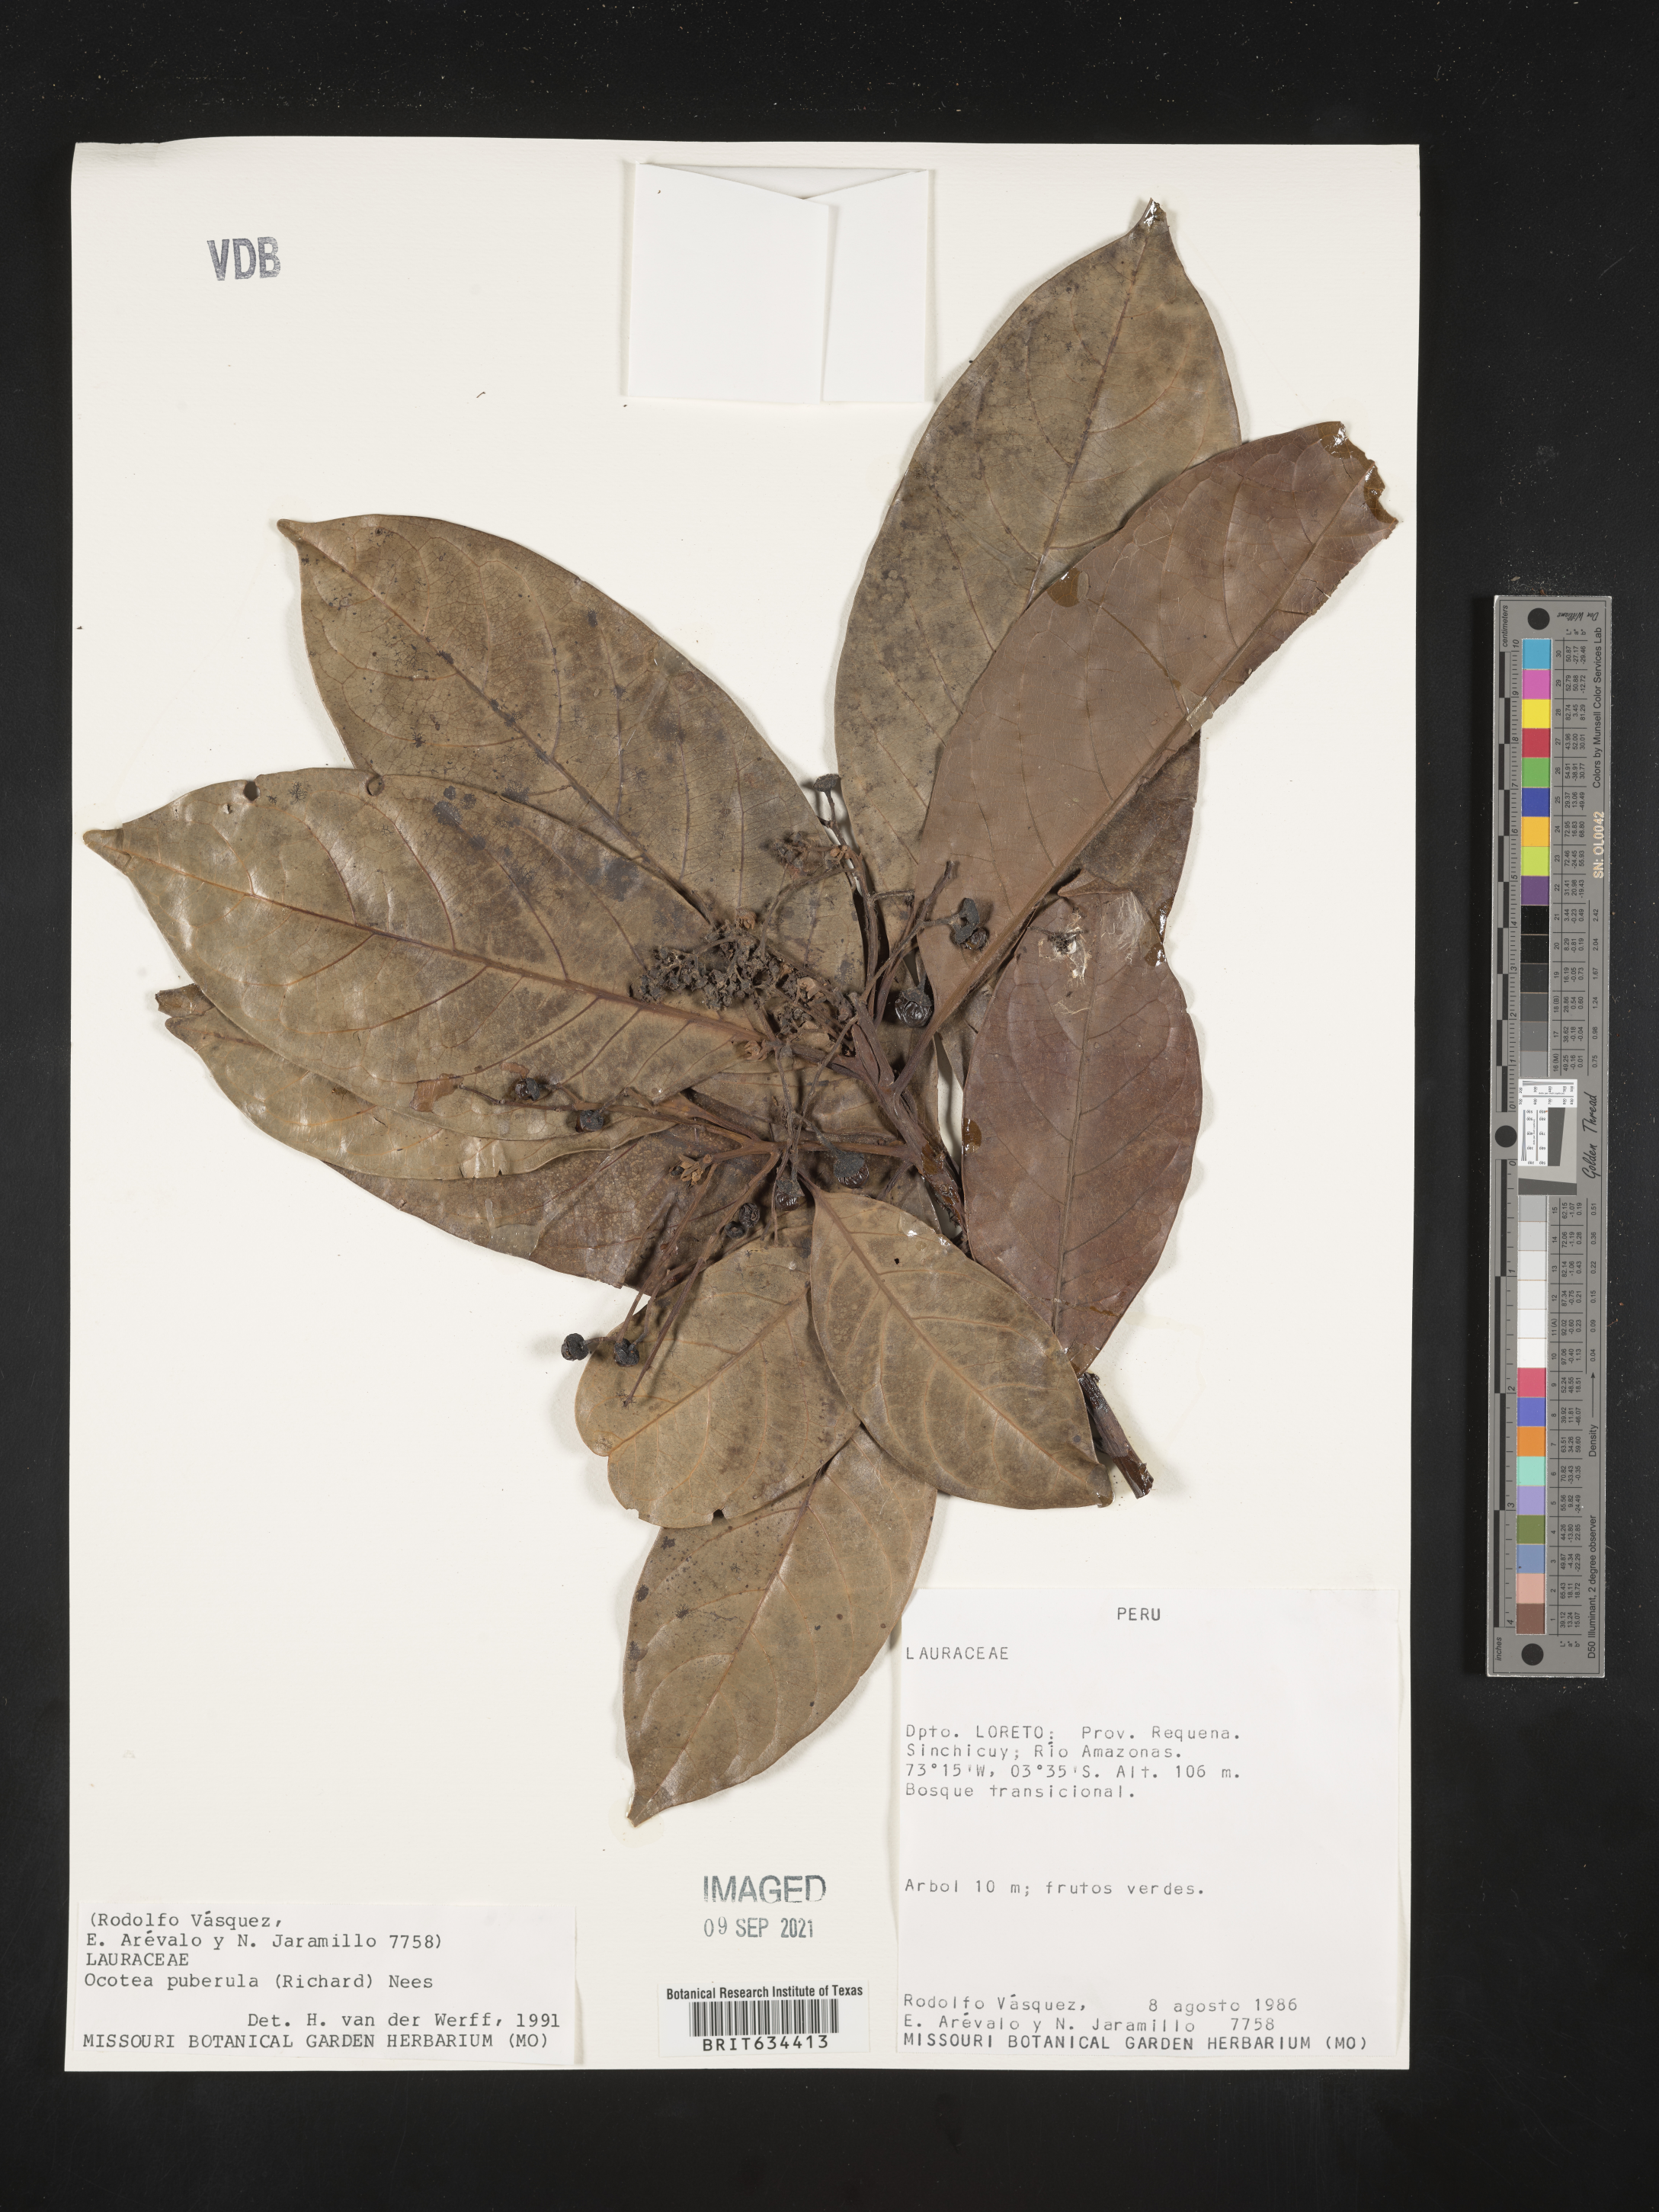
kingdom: Plantae
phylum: Tracheophyta
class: Magnoliopsida
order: Laurales
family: Lauraceae
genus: Ocotea
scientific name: Ocotea
